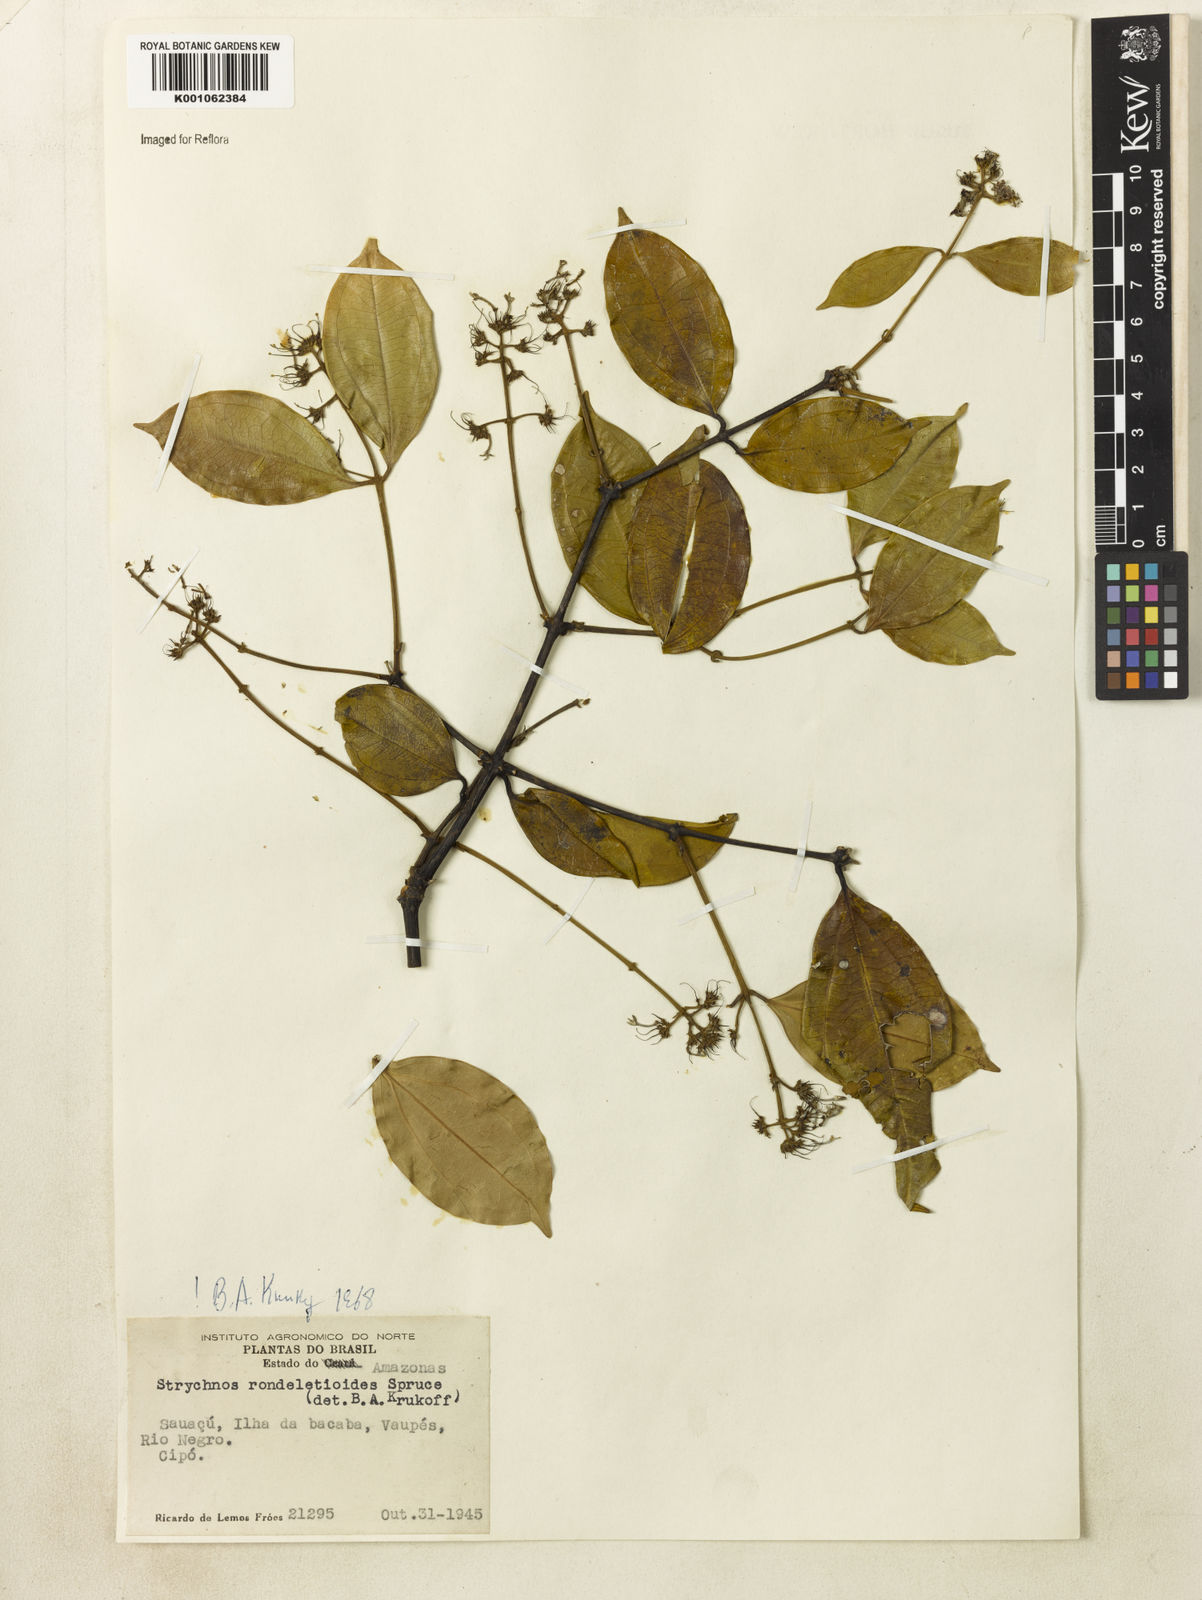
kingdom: Plantae
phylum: Tracheophyta
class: Magnoliopsida
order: Gentianales
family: Loganiaceae
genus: Strychnos
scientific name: Strychnos rondeletioides
